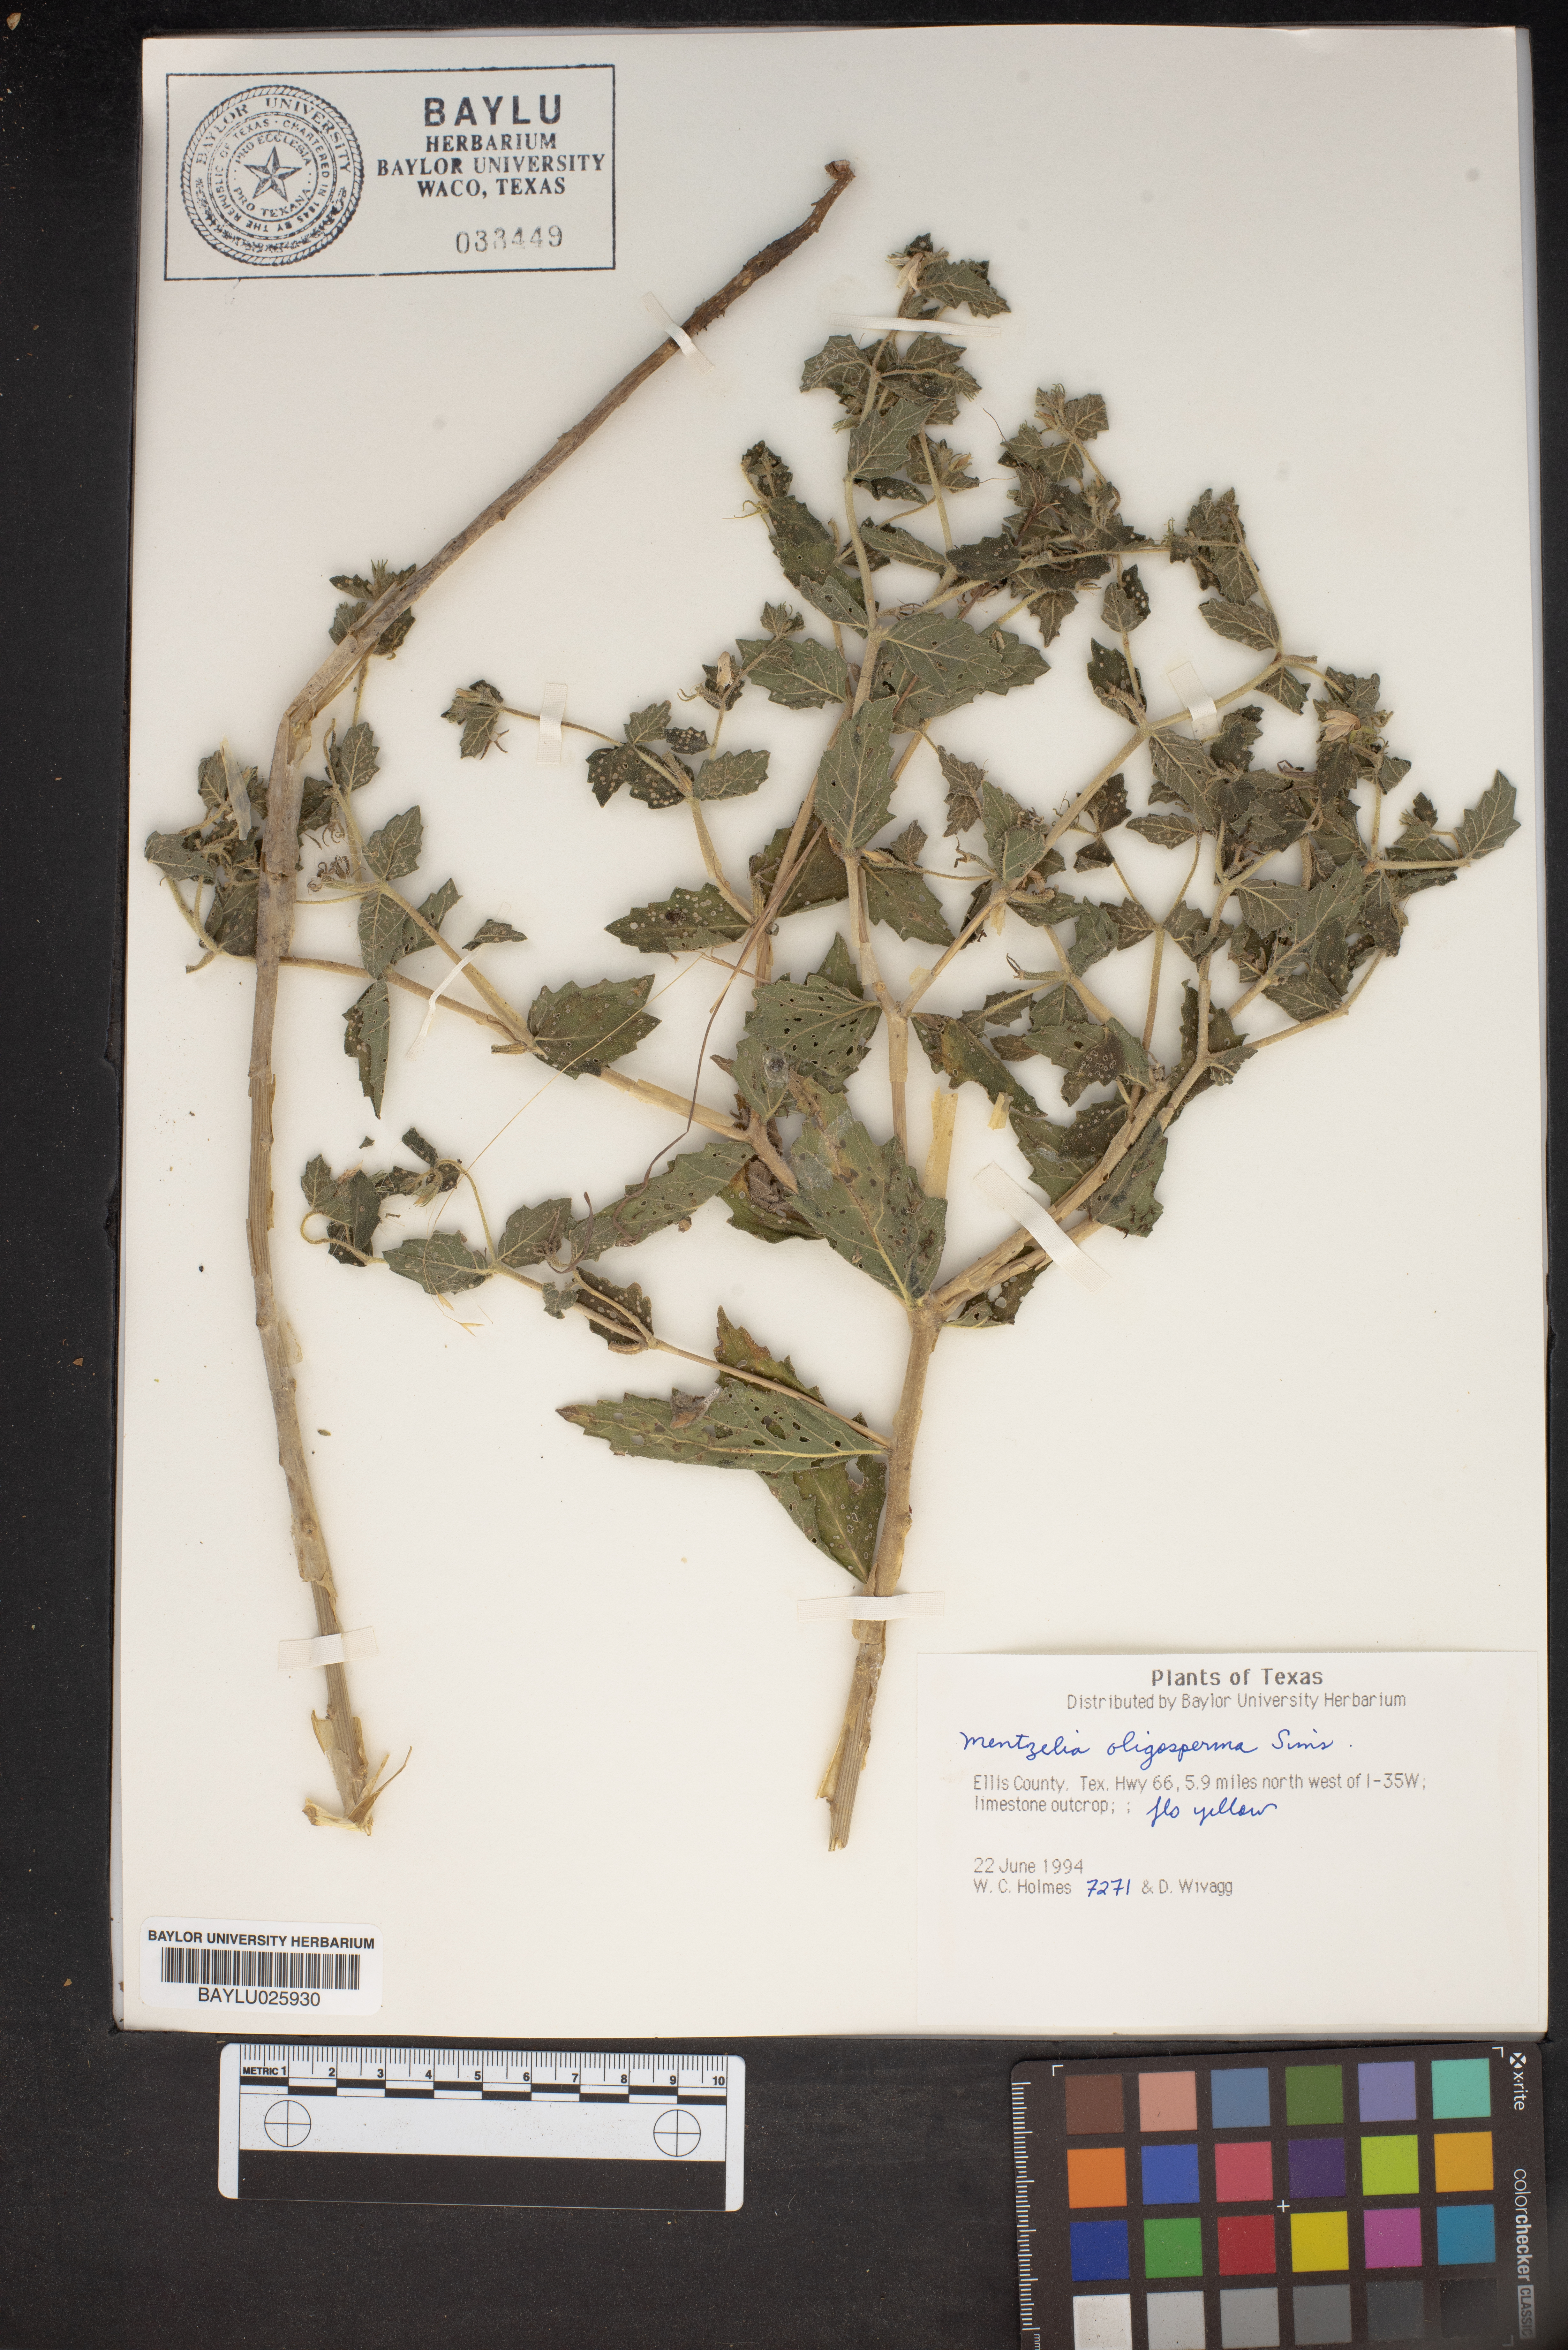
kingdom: Plantae
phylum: Tracheophyta
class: Magnoliopsida
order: Cornales
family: Loasaceae
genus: Mentzelia
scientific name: Mentzelia oligosperma
